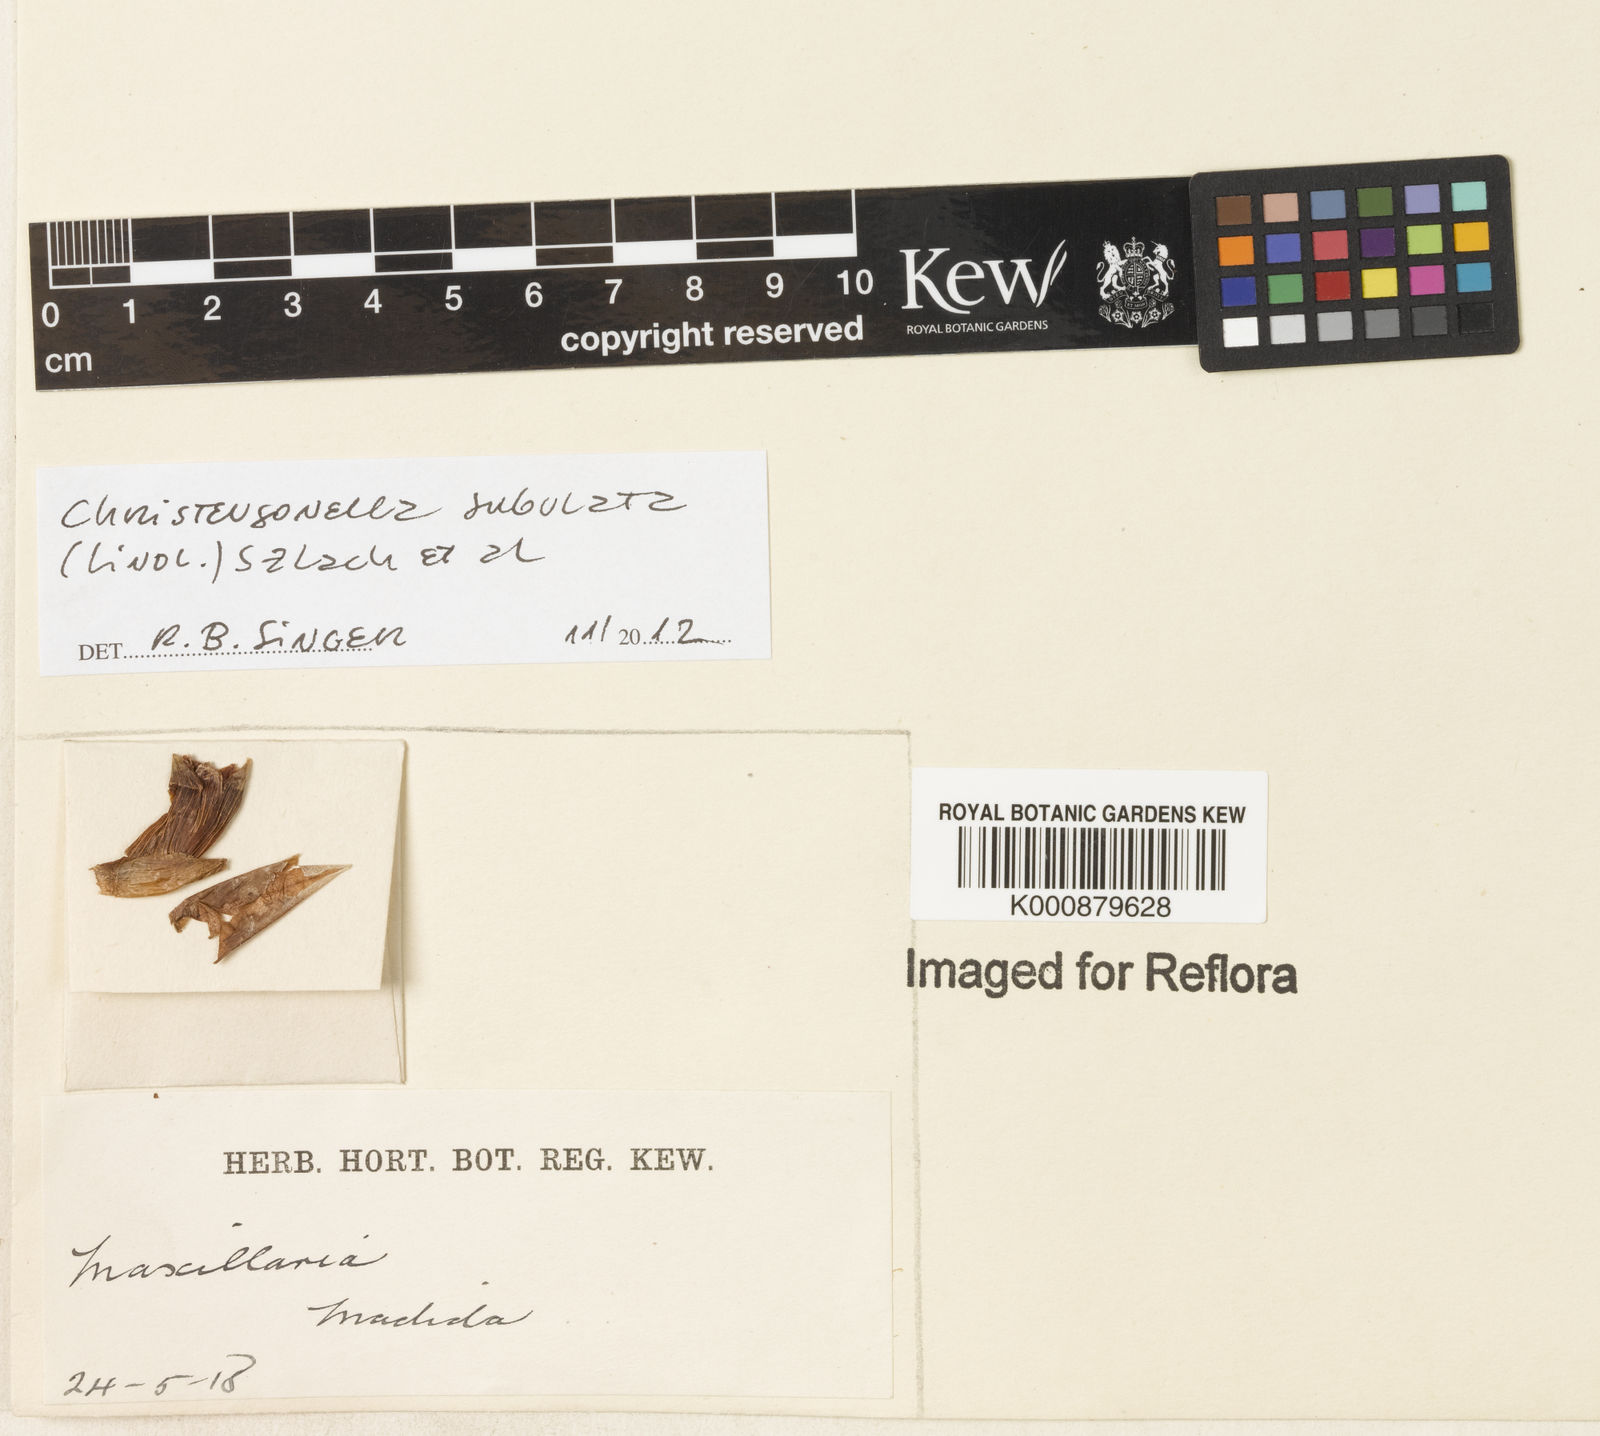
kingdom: Plantae
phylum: Tracheophyta
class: Liliopsida
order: Asparagales
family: Orchidaceae
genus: Maxillaria
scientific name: Maxillaria subulata
